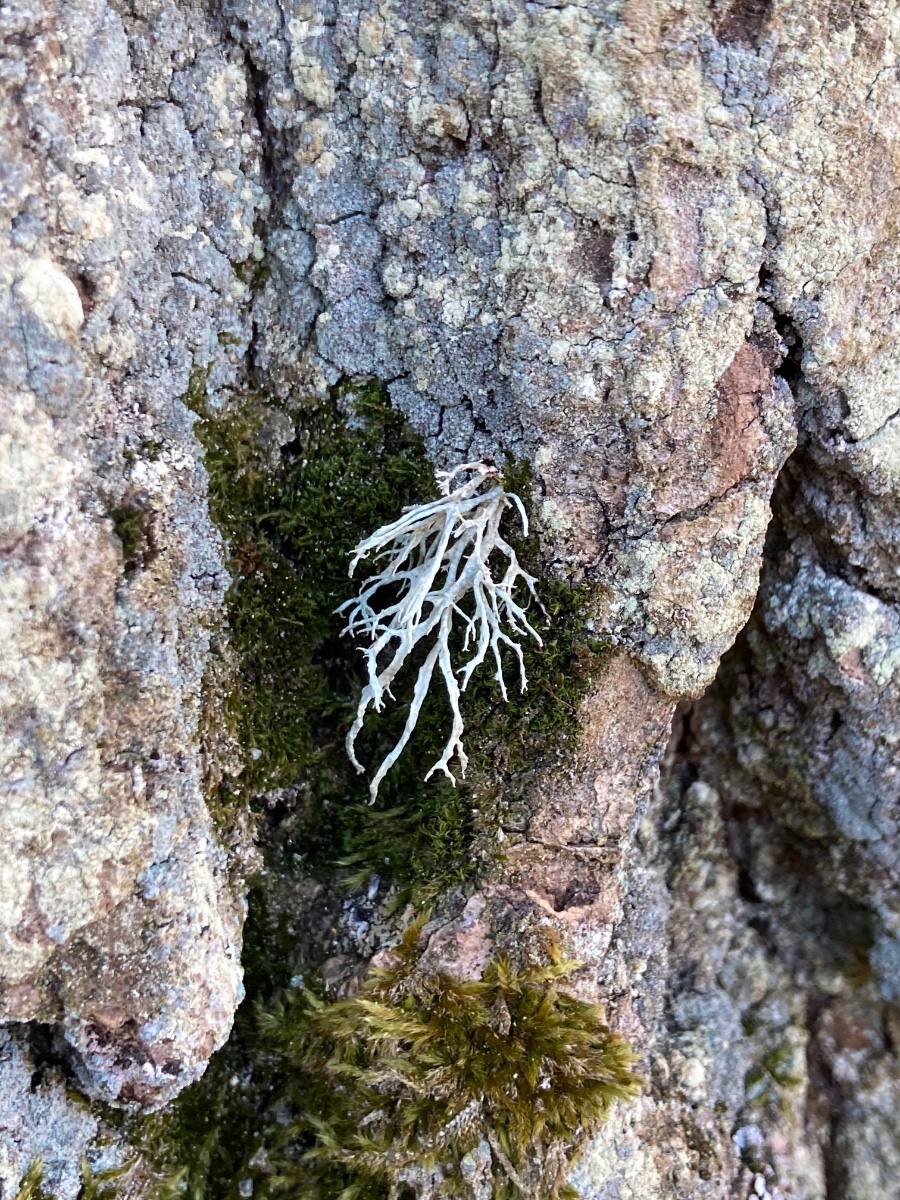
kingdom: Fungi
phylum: Ascomycota
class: Lecanoromycetes
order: Lecanorales
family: Ramalinaceae
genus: Ramalina
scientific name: Ramalina farinacea
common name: melet grenlav
